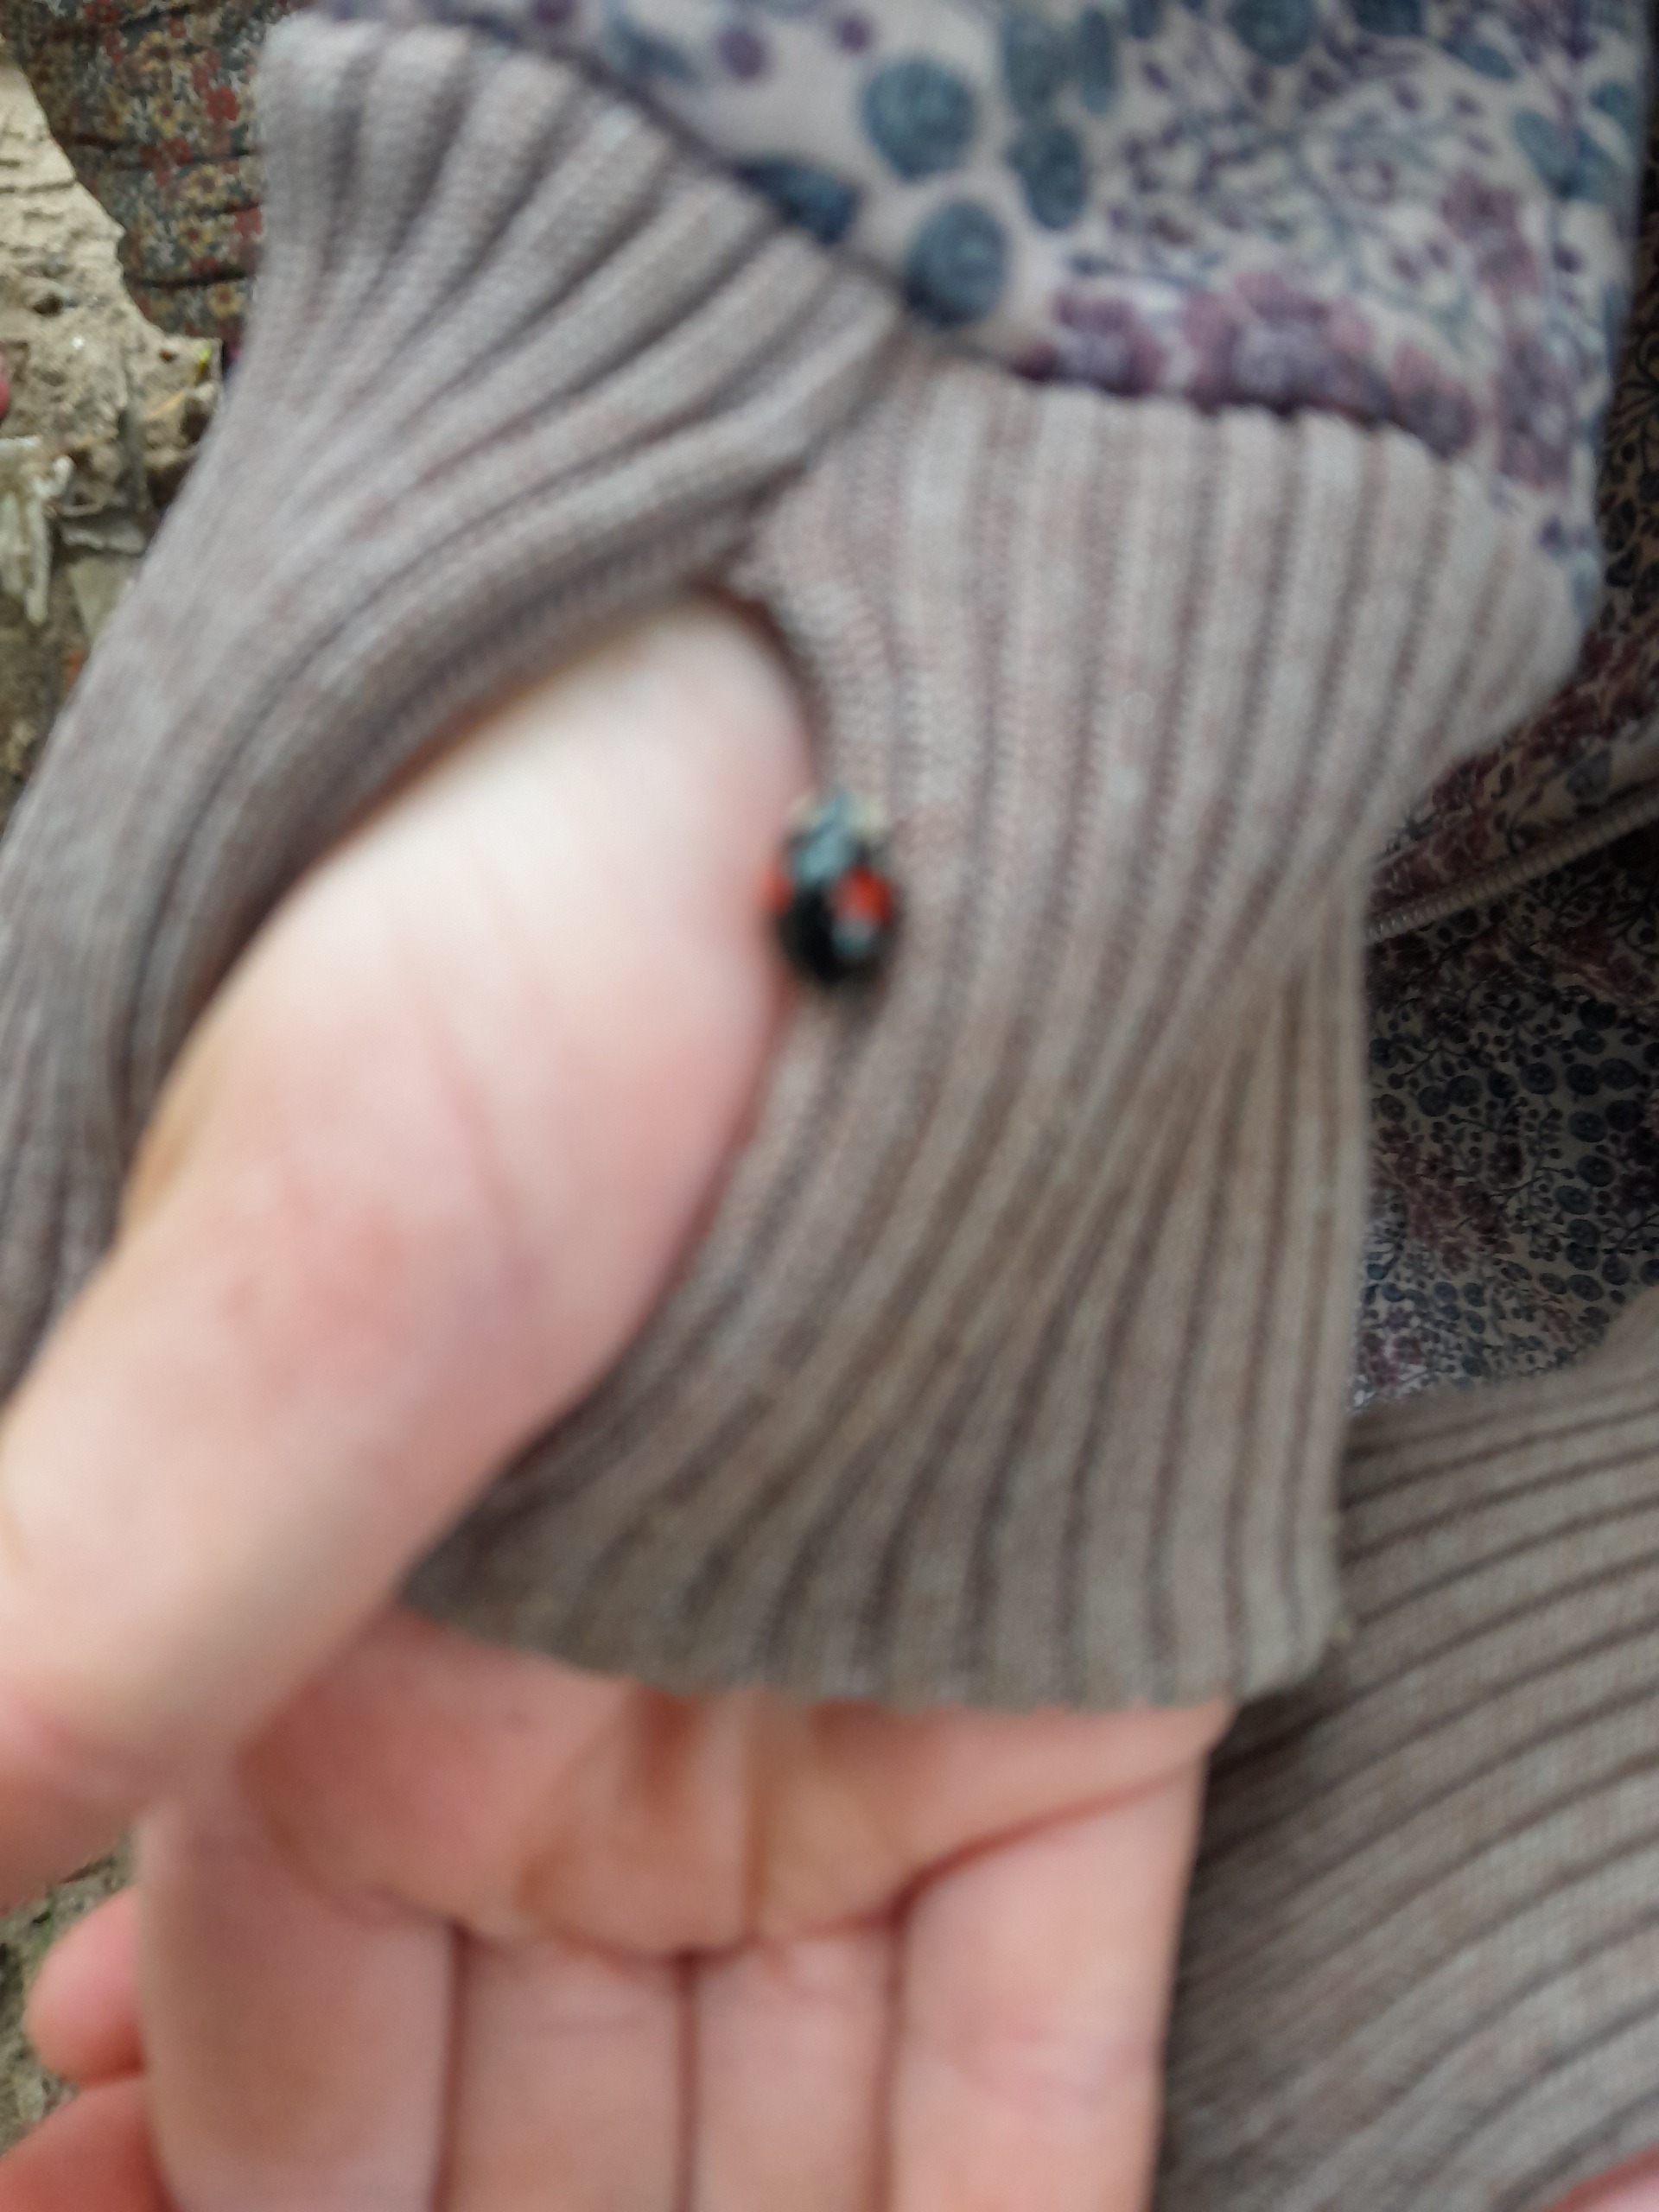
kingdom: Animalia
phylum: Arthropoda
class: Insecta
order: Coleoptera
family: Coccinellidae
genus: Harmonia
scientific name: Harmonia axyridis
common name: Harlekinmariehøne
